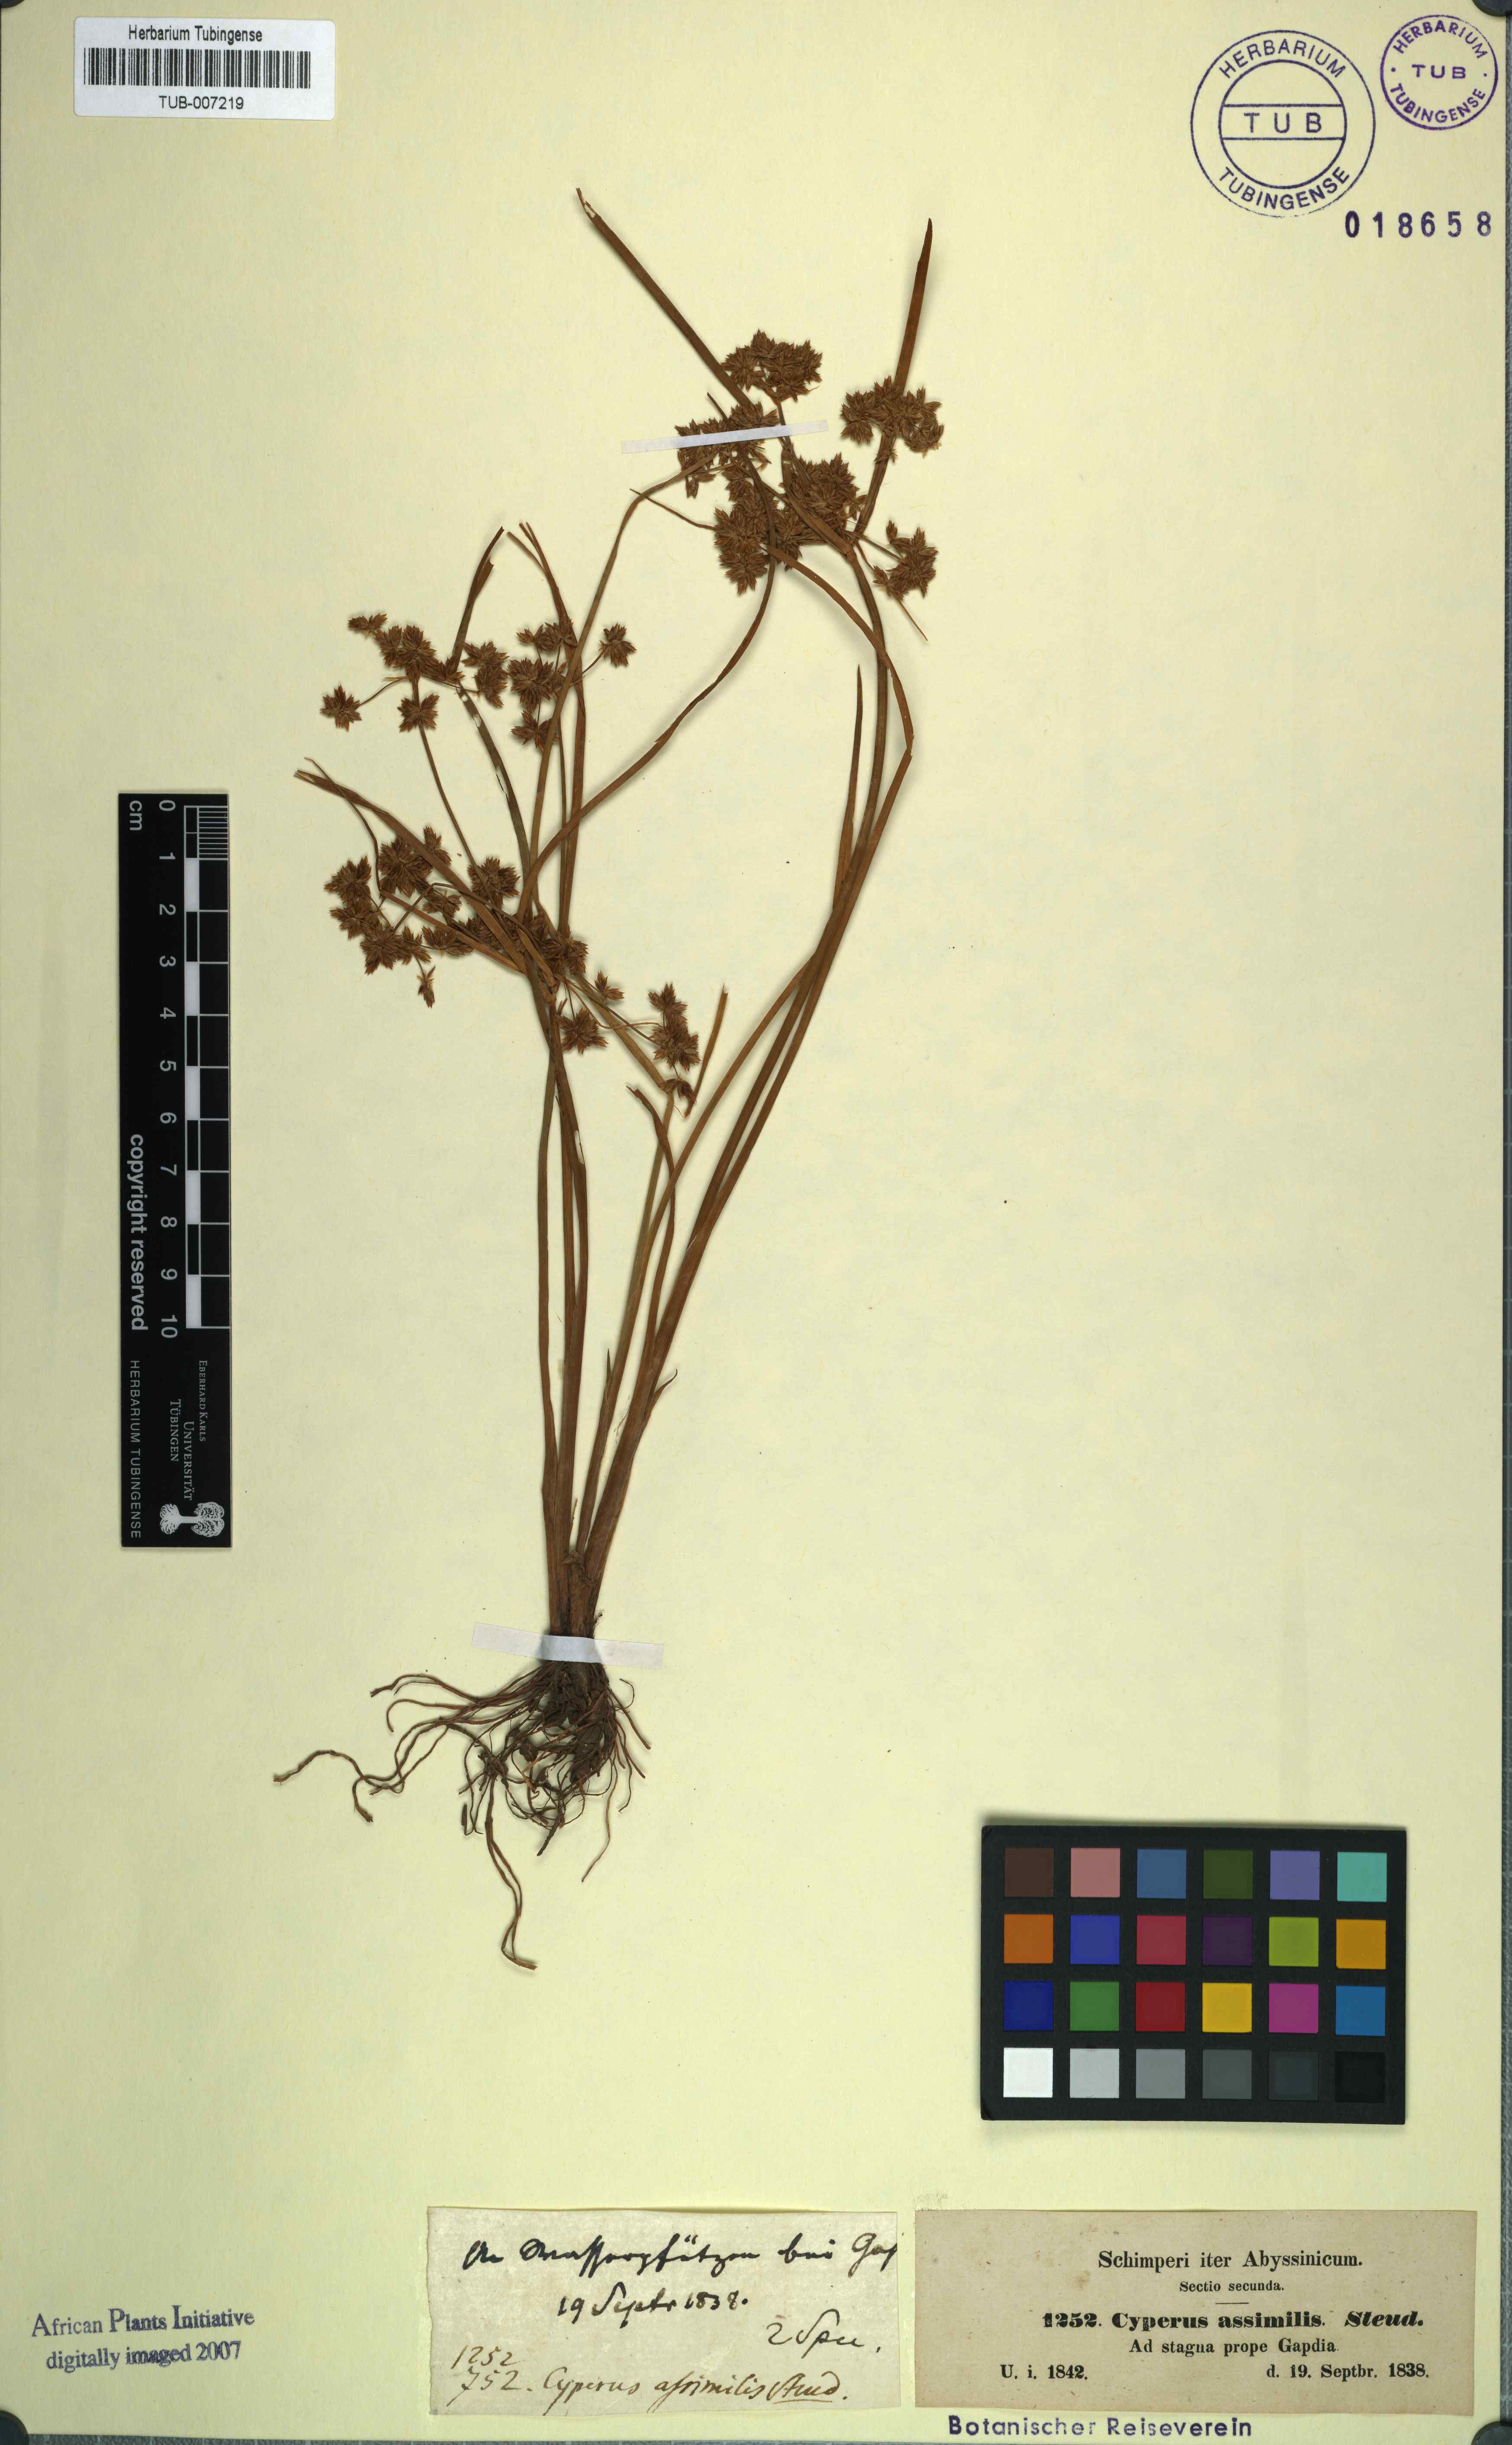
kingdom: Plantae
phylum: Tracheophyta
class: Liliopsida
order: Poales
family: Cyperaceae
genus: Cyperus
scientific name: Cyperus assimilis
